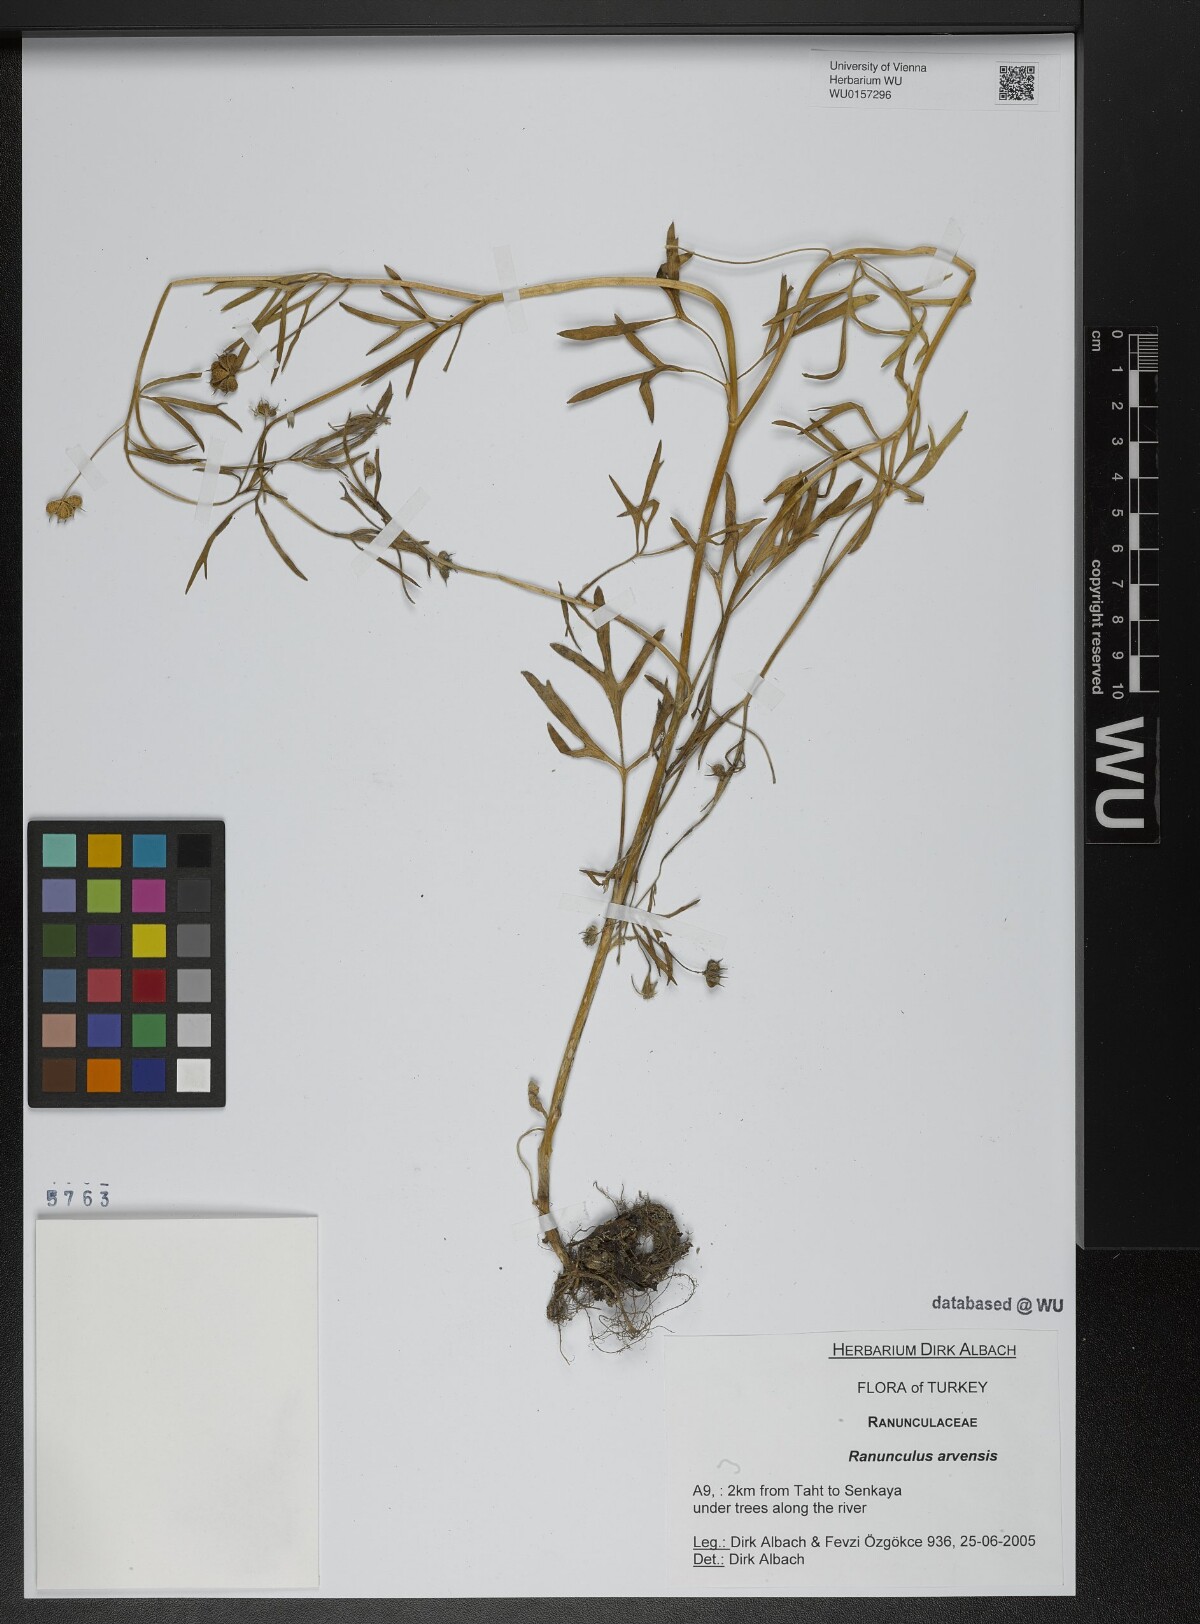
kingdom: Plantae
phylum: Tracheophyta
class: Magnoliopsida
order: Ranunculales
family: Ranunculaceae
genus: Ranunculus
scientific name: Ranunculus arvensis
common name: Corn buttercup
